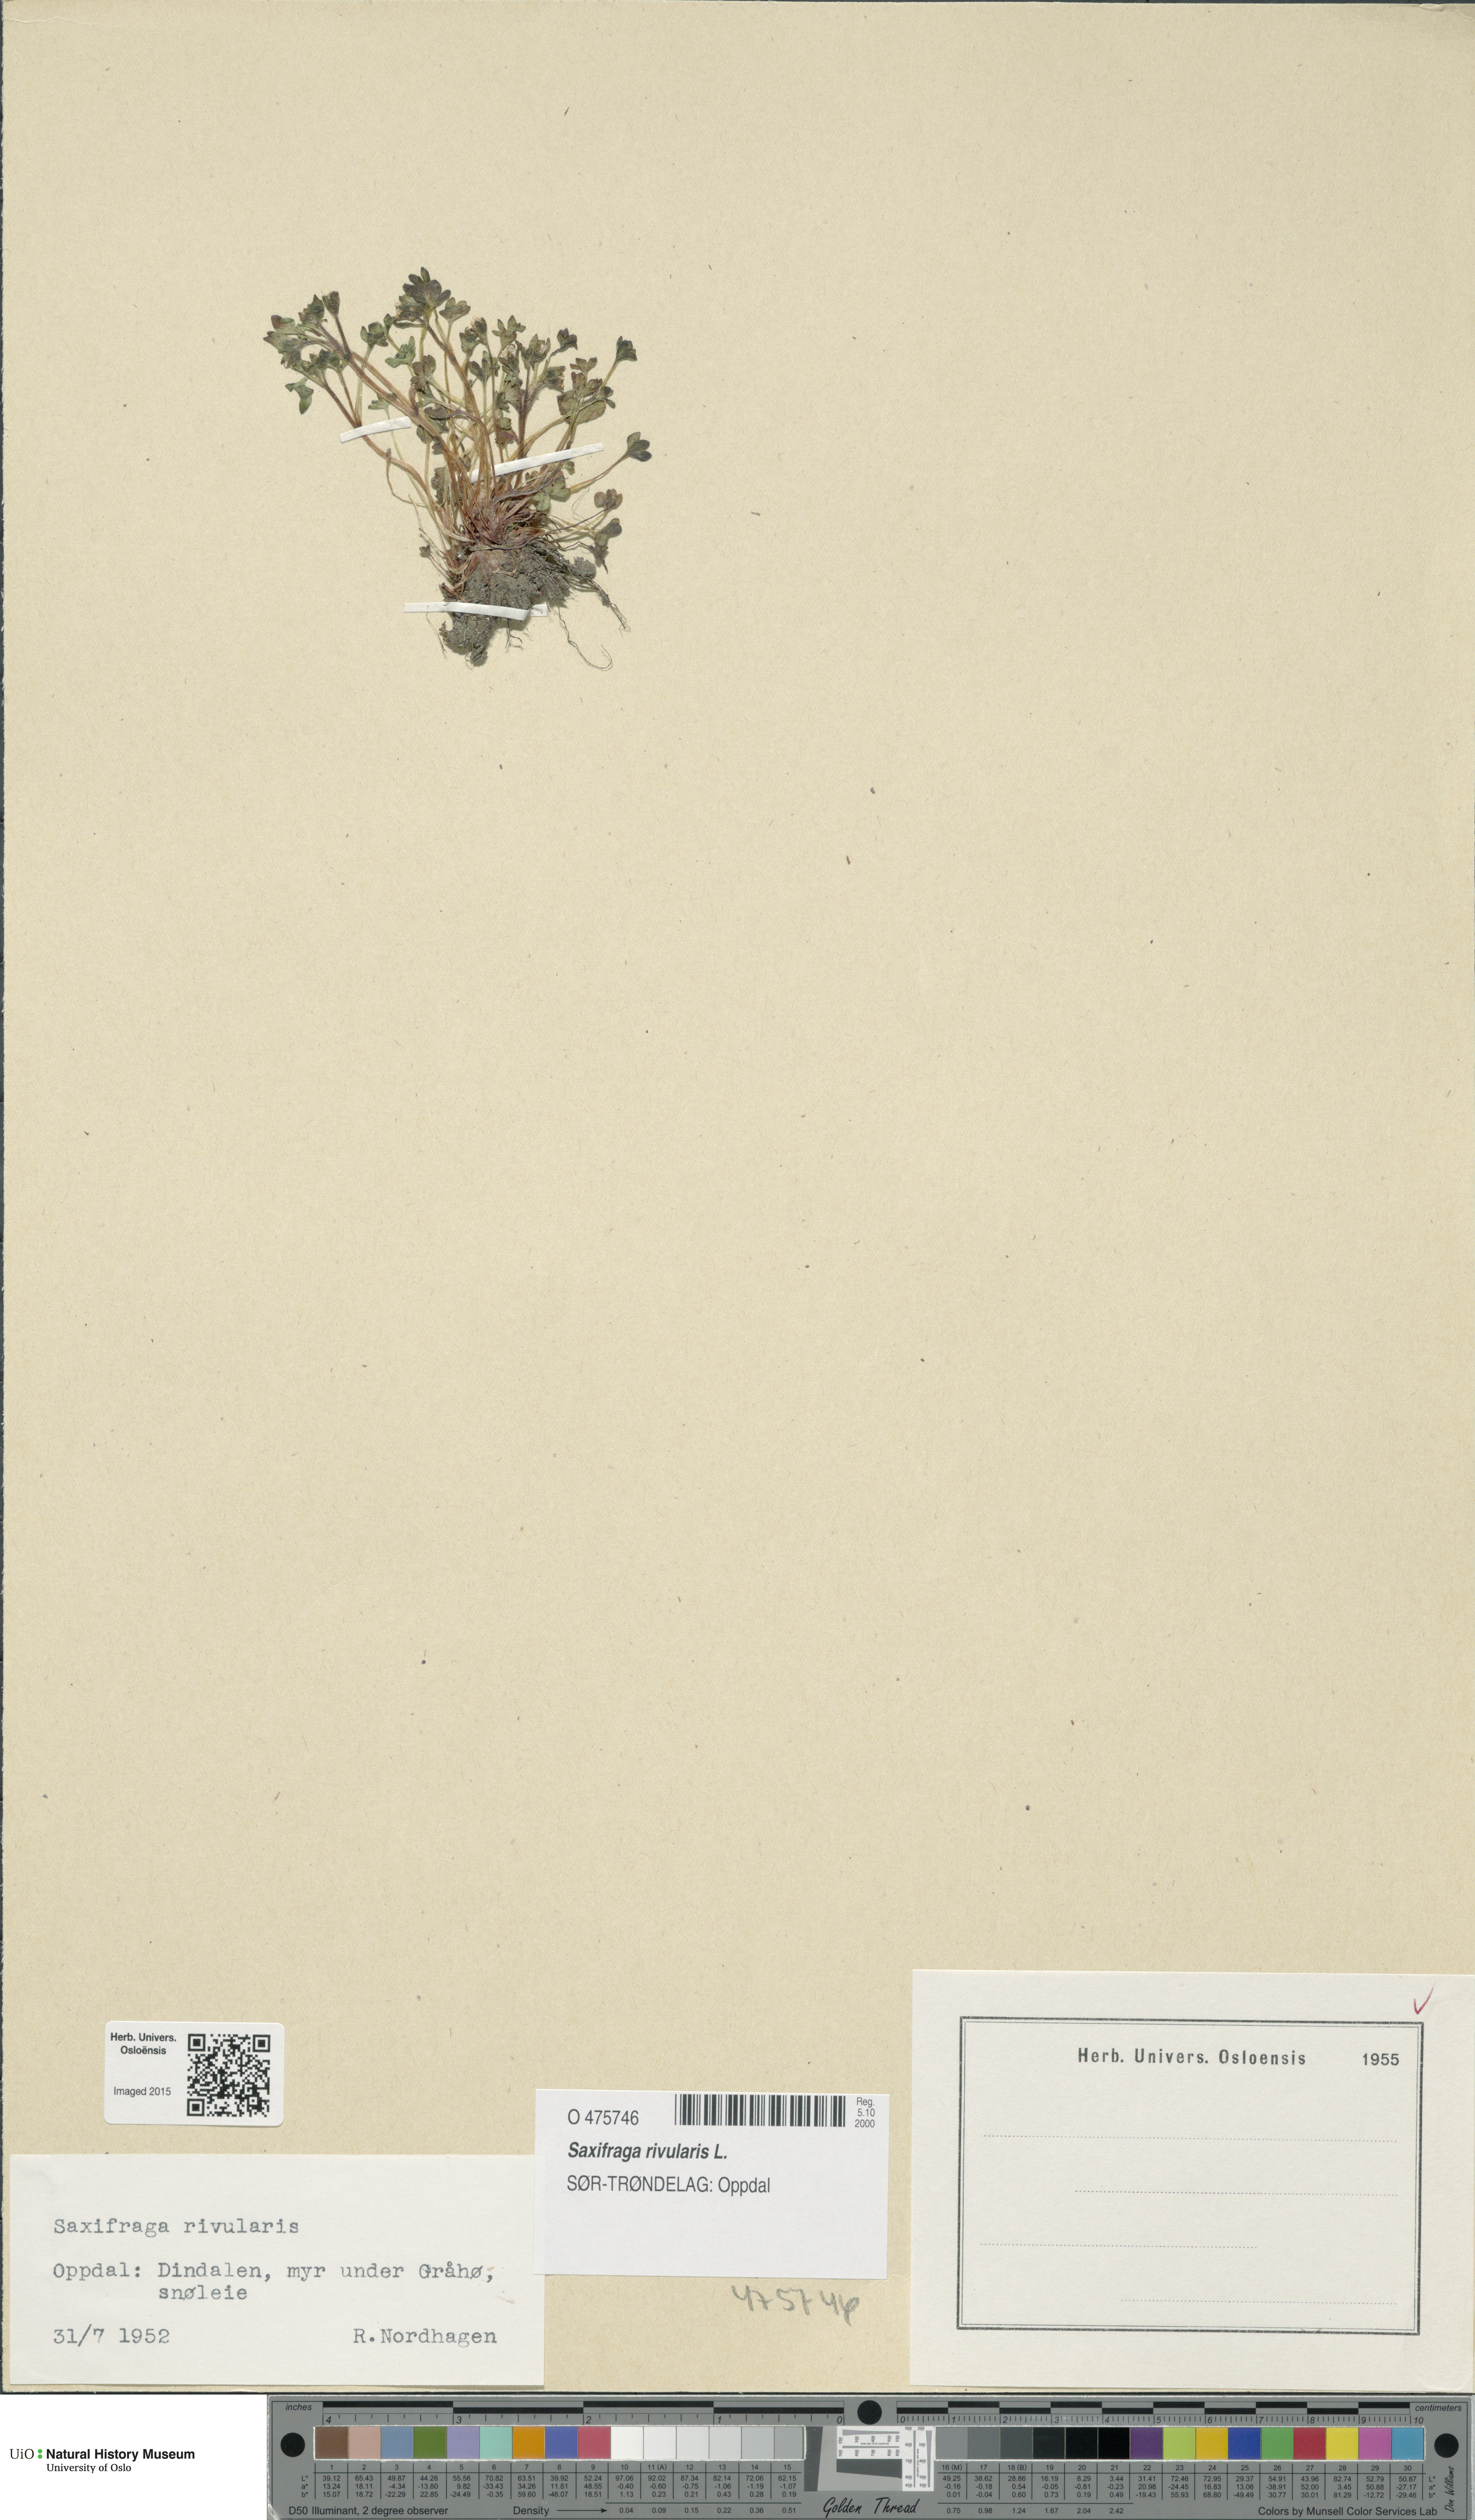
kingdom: Plantae
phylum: Tracheophyta
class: Magnoliopsida
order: Saxifragales
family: Saxifragaceae
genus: Saxifraga
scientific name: Saxifraga rivularis
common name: Highland saxifrage
